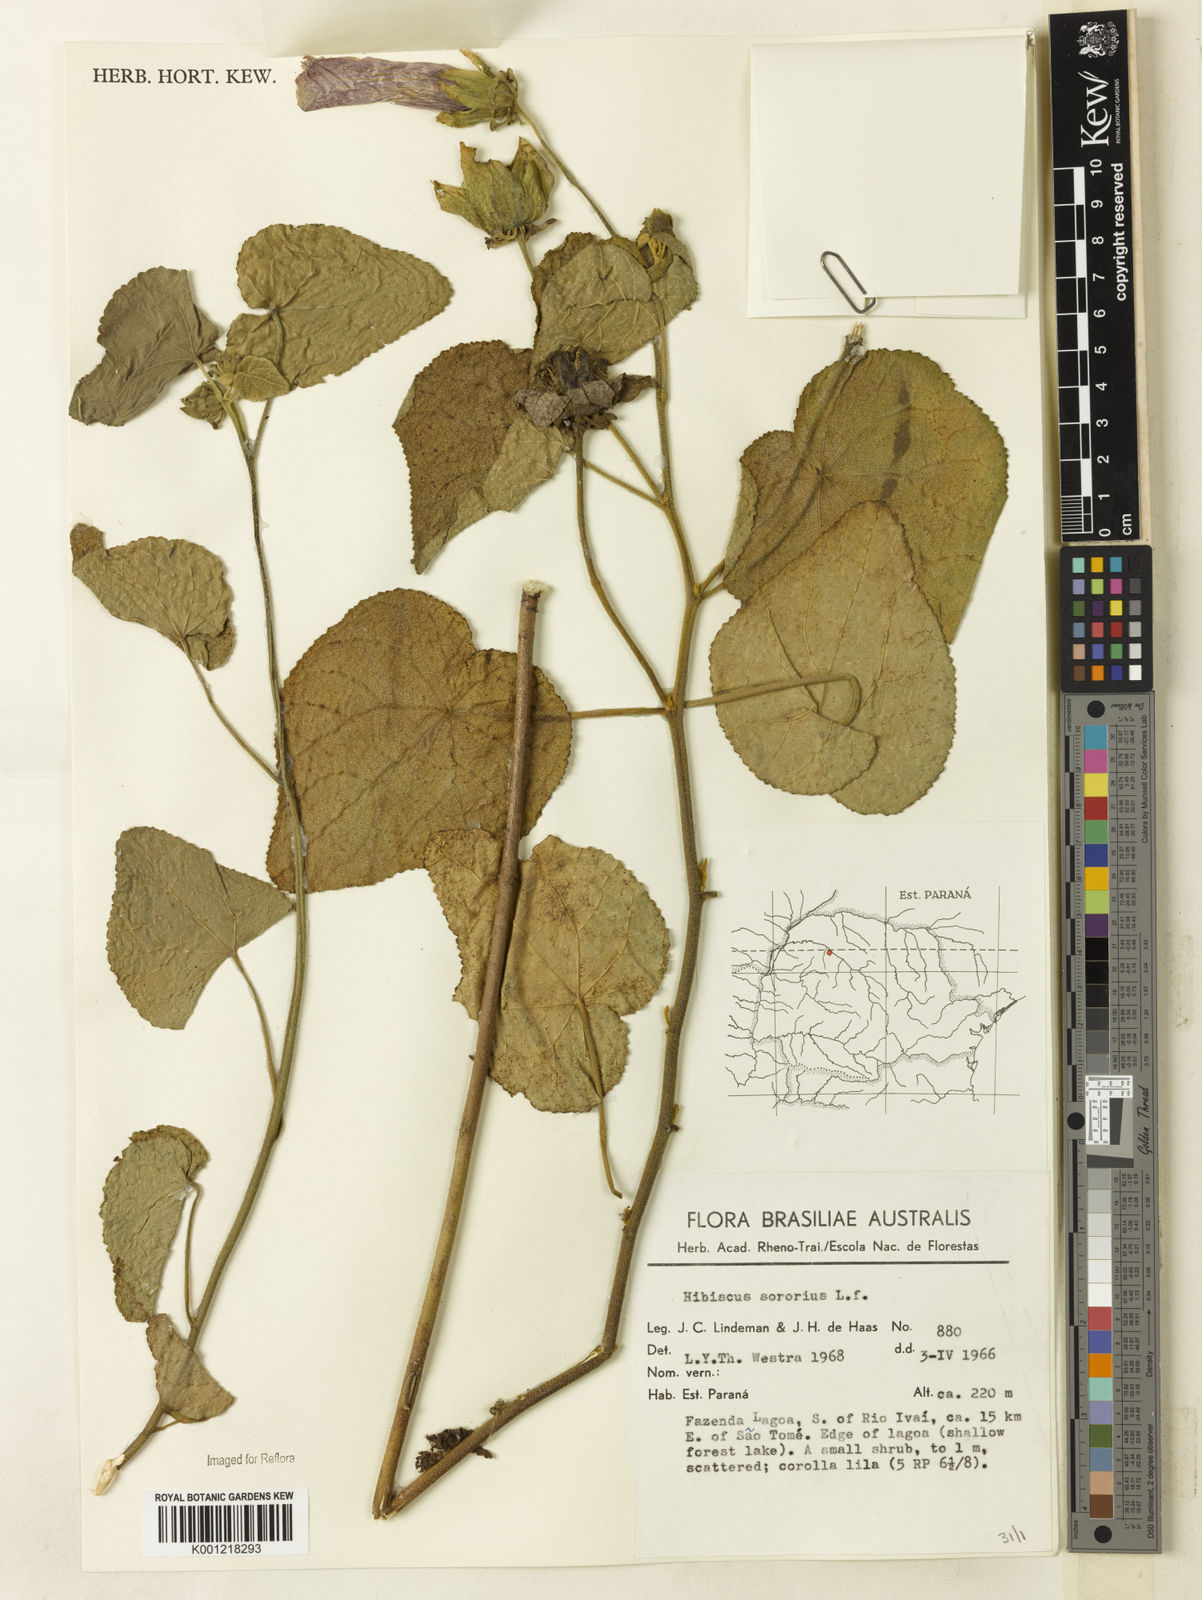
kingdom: Plantae
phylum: Tracheophyta
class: Magnoliopsida
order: Malvales
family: Malvaceae
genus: Hibiscus
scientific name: Hibiscus sororius
